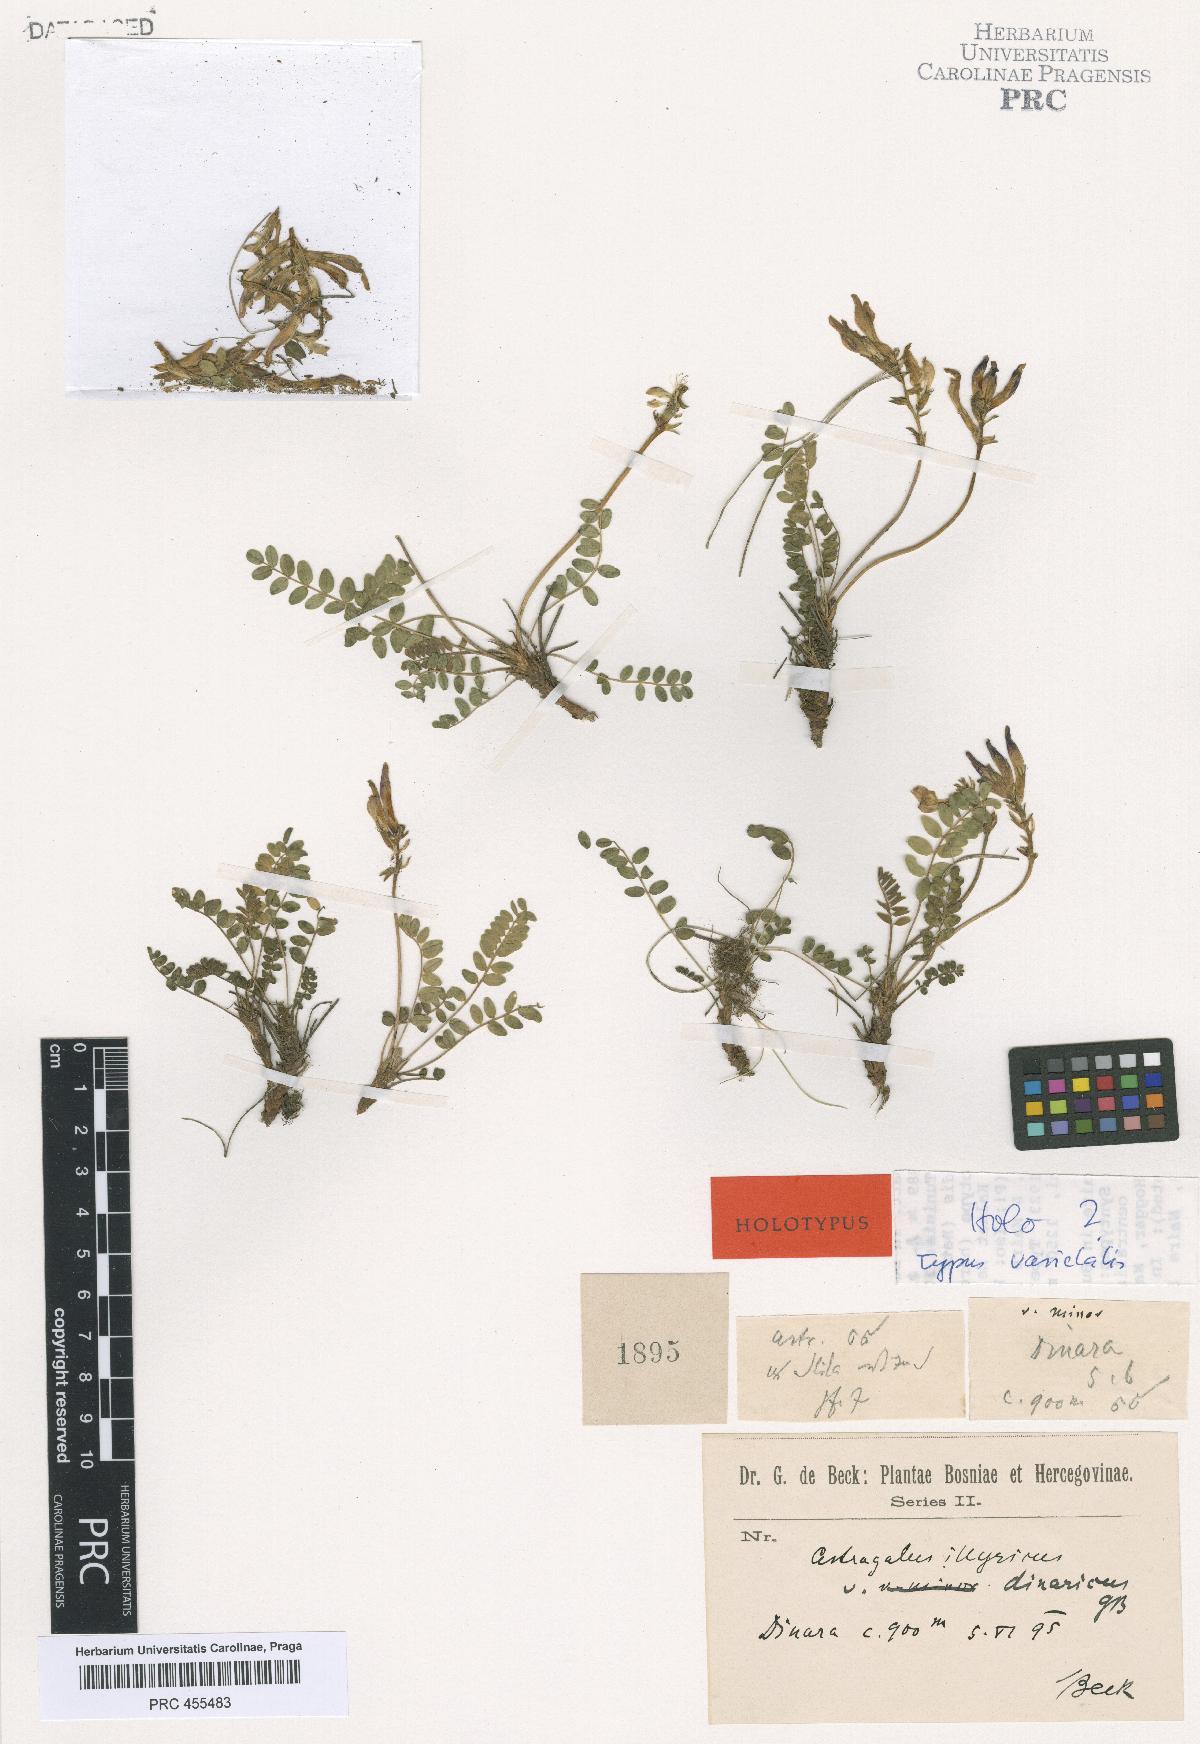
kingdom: Plantae
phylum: Tracheophyta
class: Magnoliopsida
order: Fabales
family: Fabaceae
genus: Astragalus
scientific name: Astragalus monspessulanus
